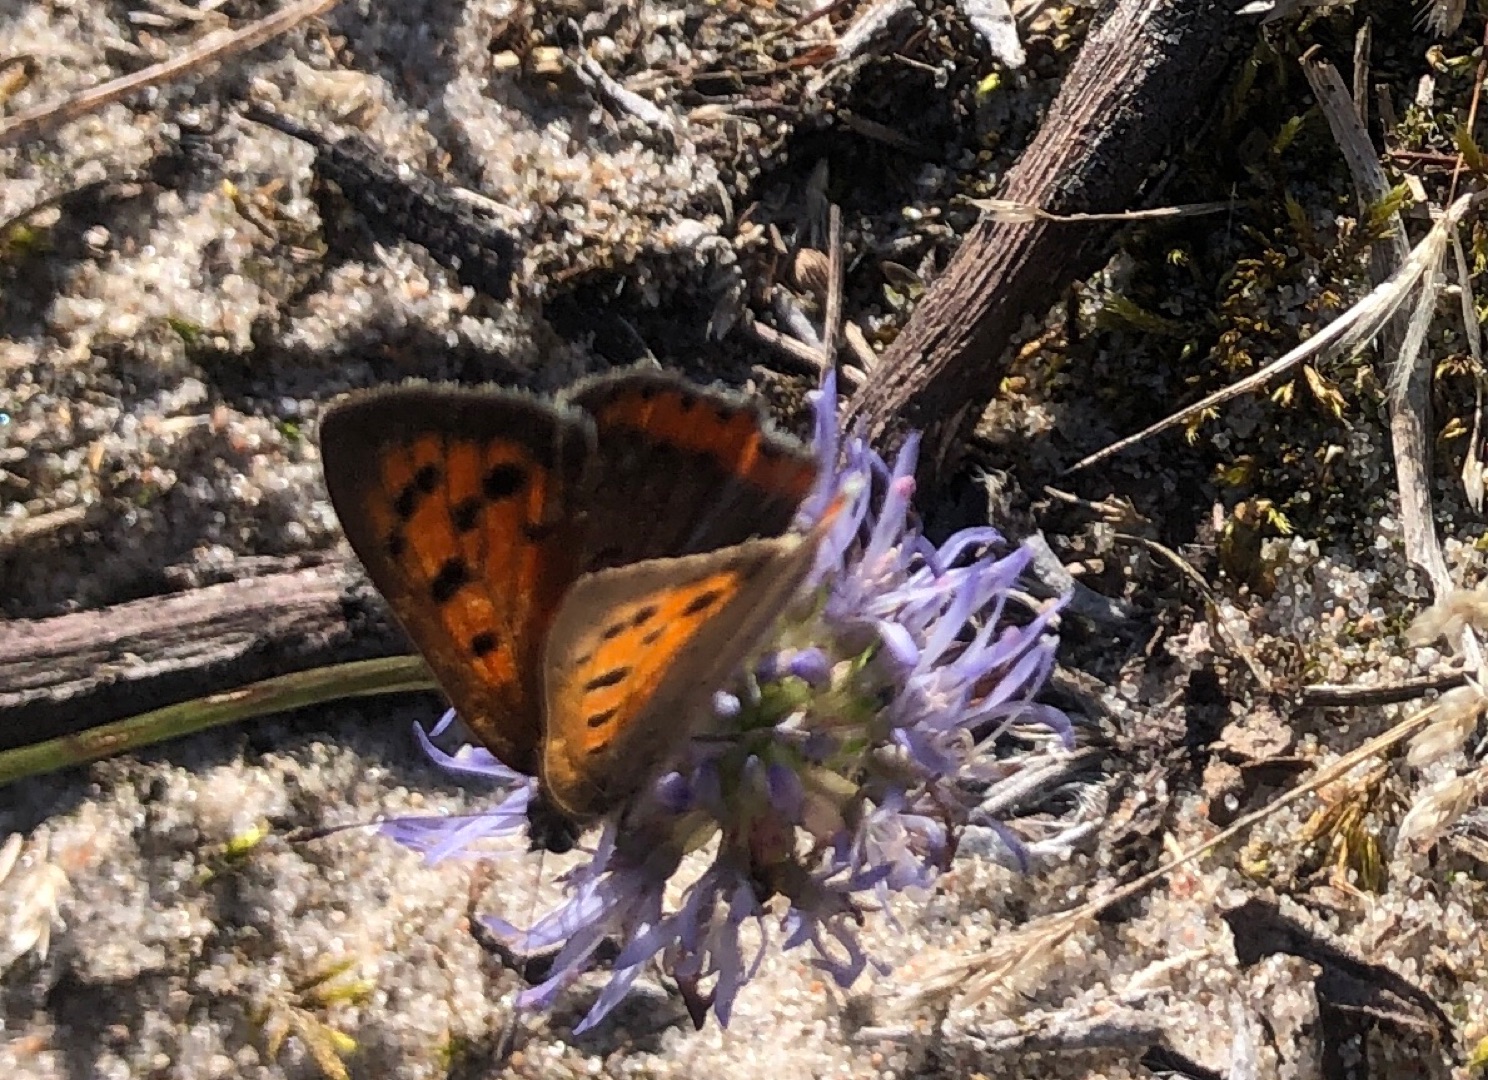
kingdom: Animalia
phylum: Arthropoda
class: Insecta
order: Lepidoptera
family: Lycaenidae
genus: Lycaena
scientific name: Lycaena phlaeas
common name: Lille ildfugl
